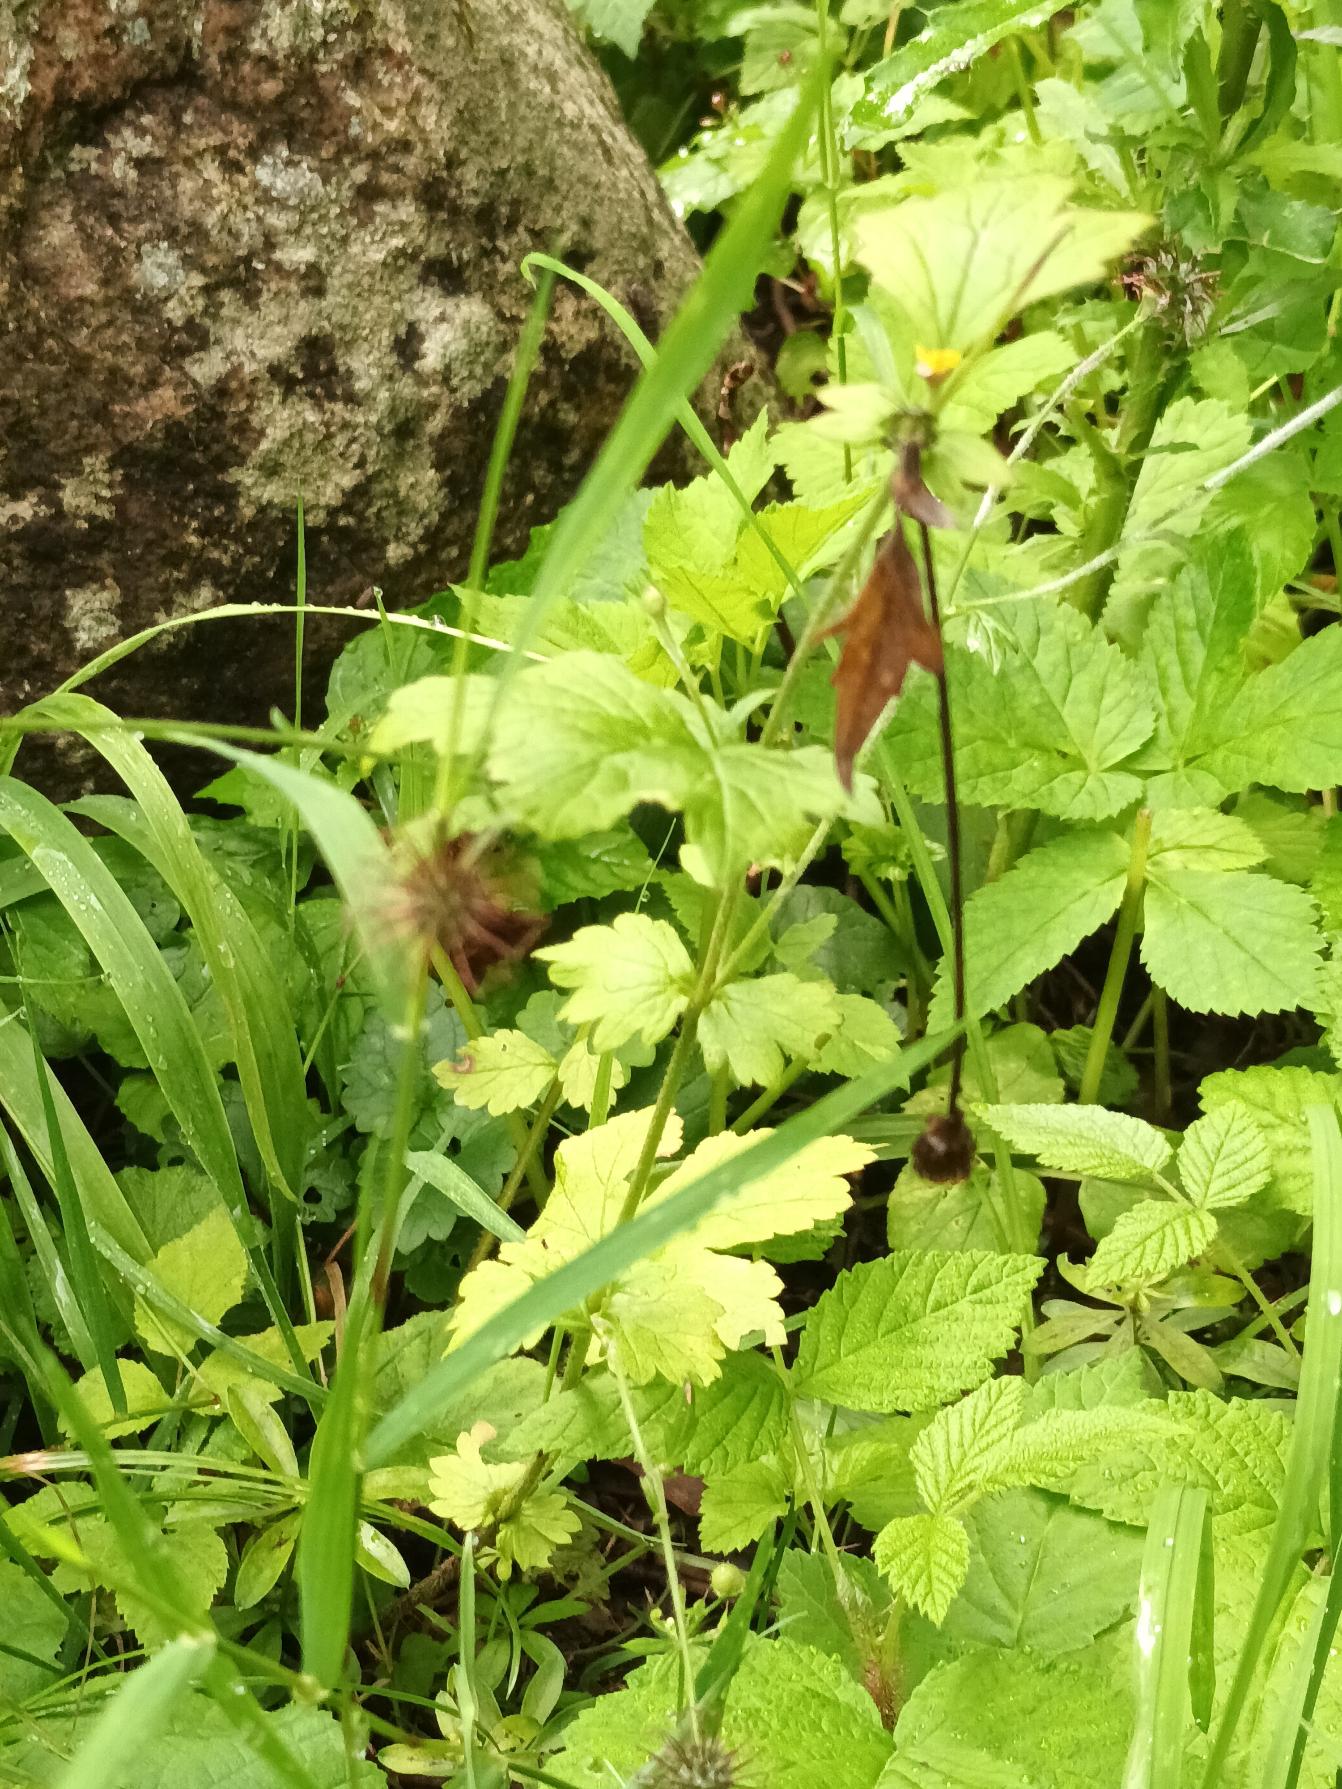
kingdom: Plantae
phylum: Tracheophyta
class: Magnoliopsida
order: Rosales
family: Rosaceae
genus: Geum
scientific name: Geum urbanum
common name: Feber-nellikerod
